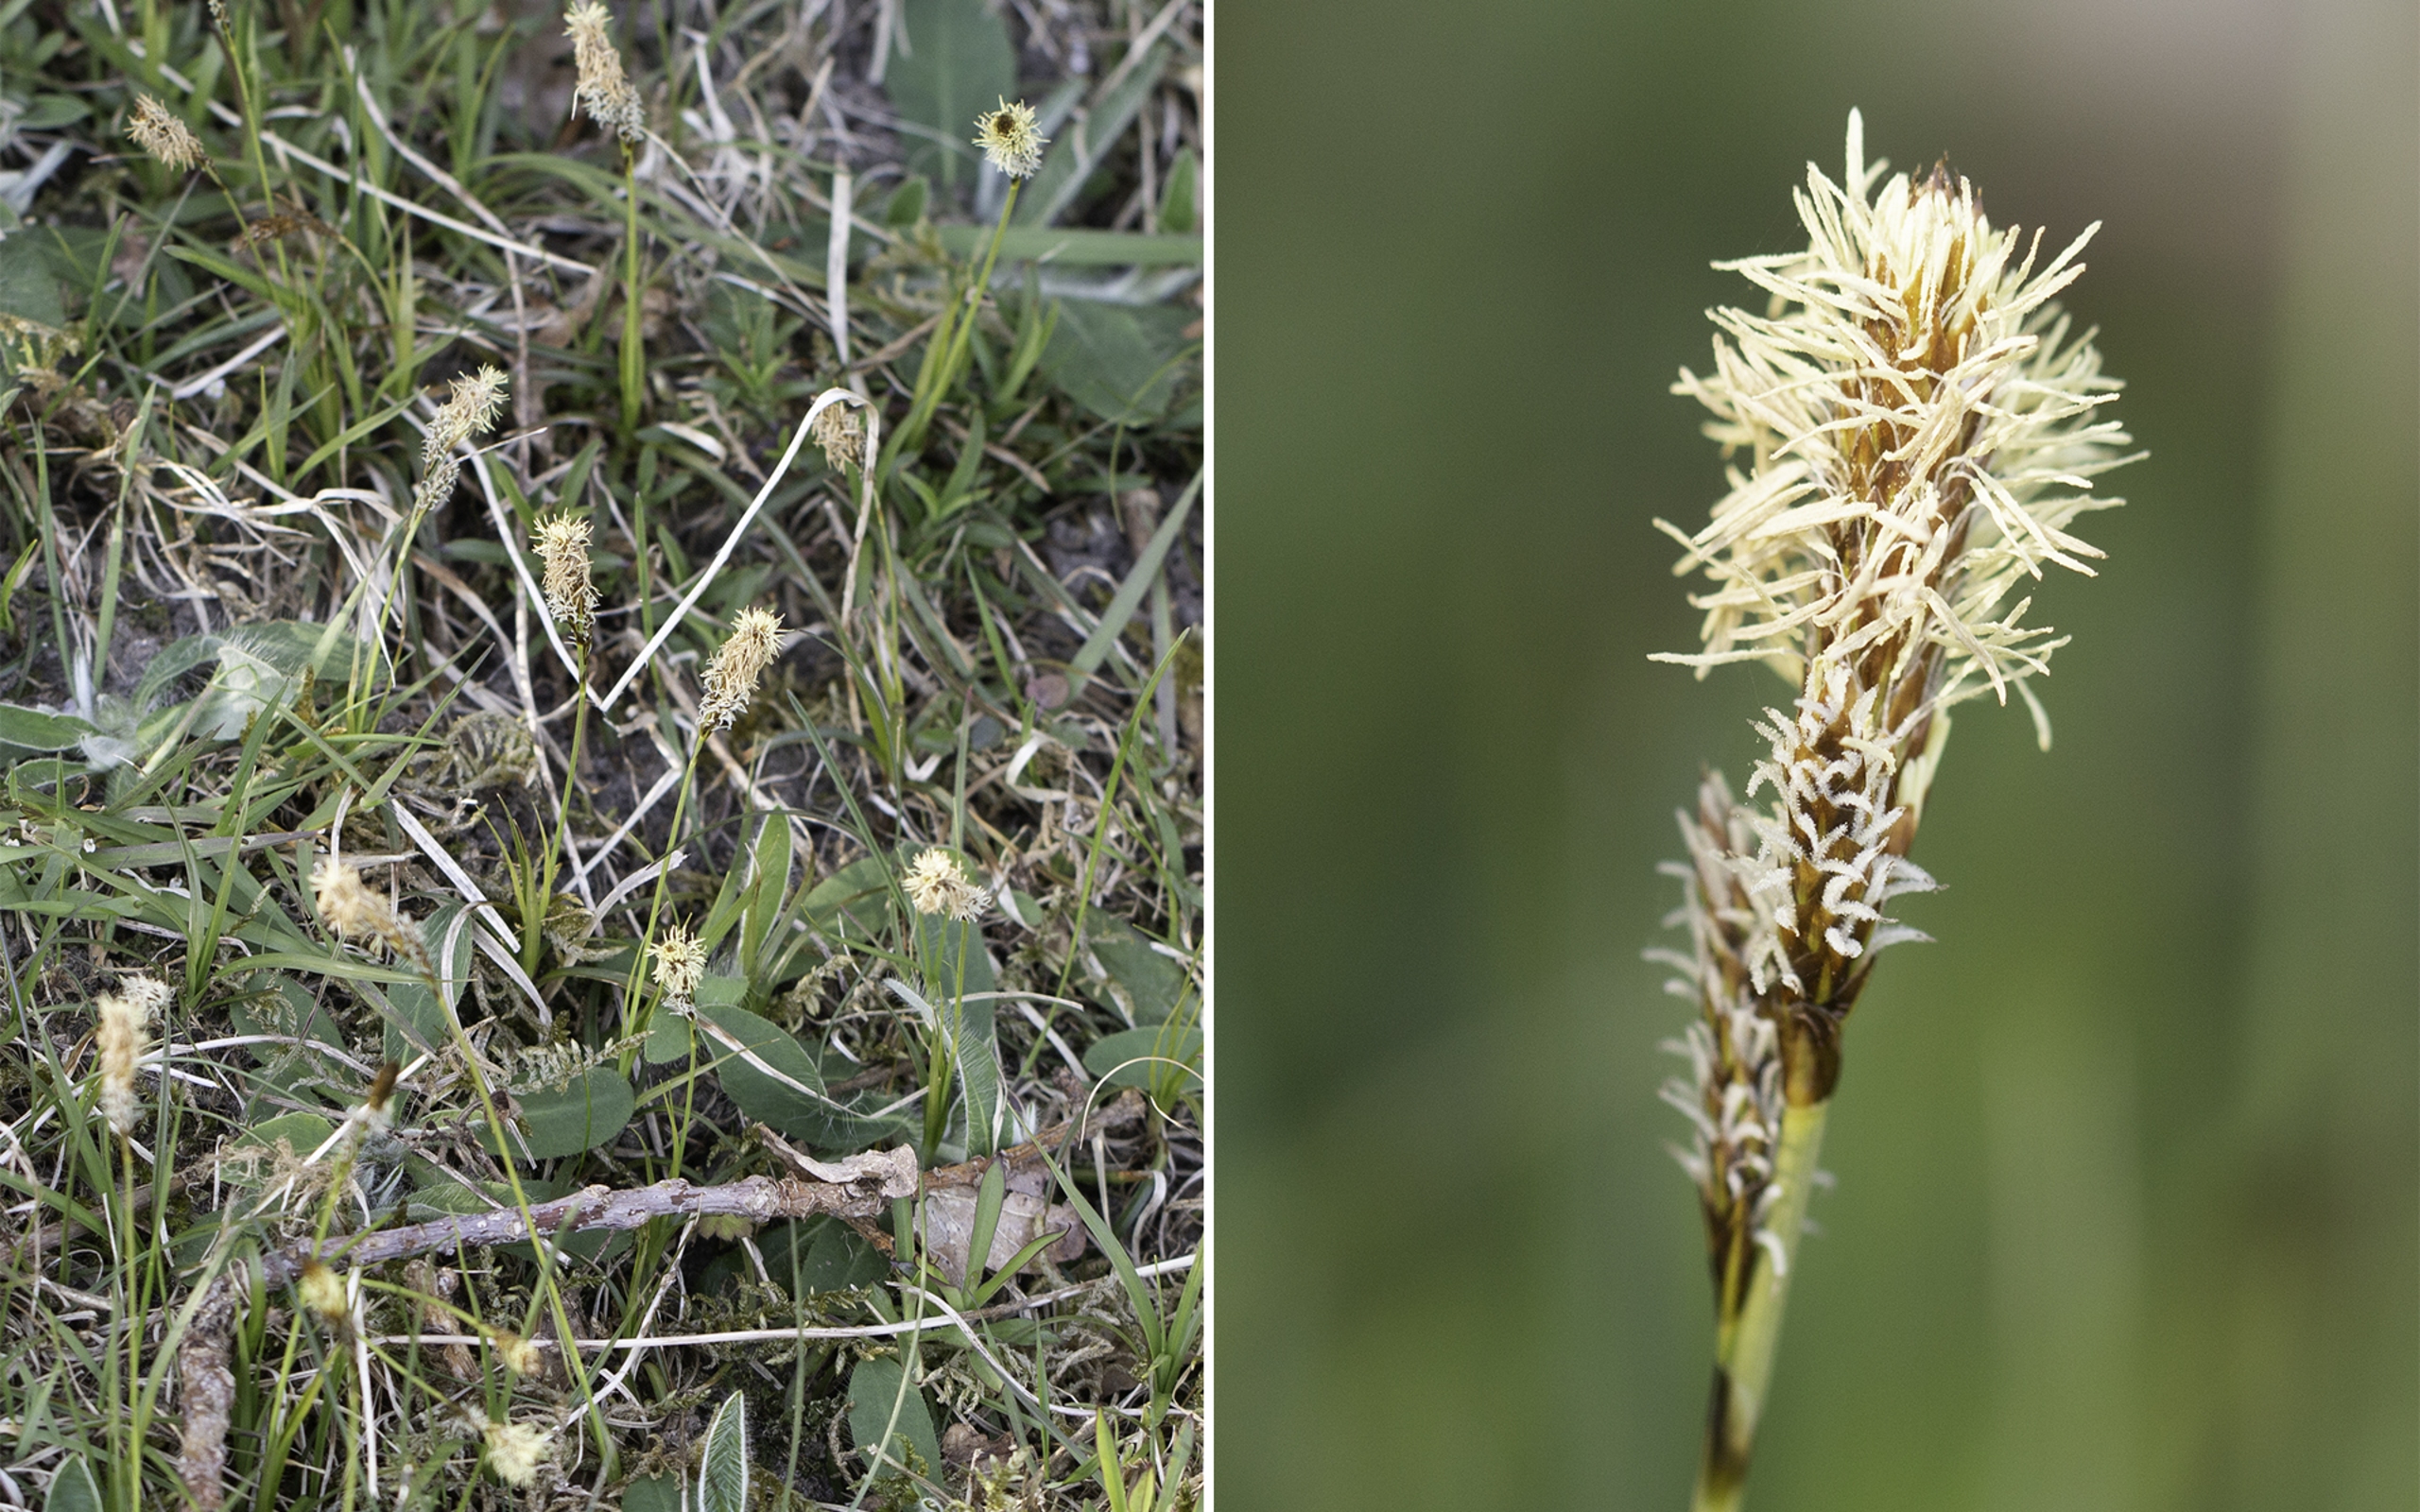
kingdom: Plantae
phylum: Tracheophyta
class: Liliopsida
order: Poales
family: Cyperaceae
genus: Carex
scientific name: Carex caryophyllea
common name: Vår-star
